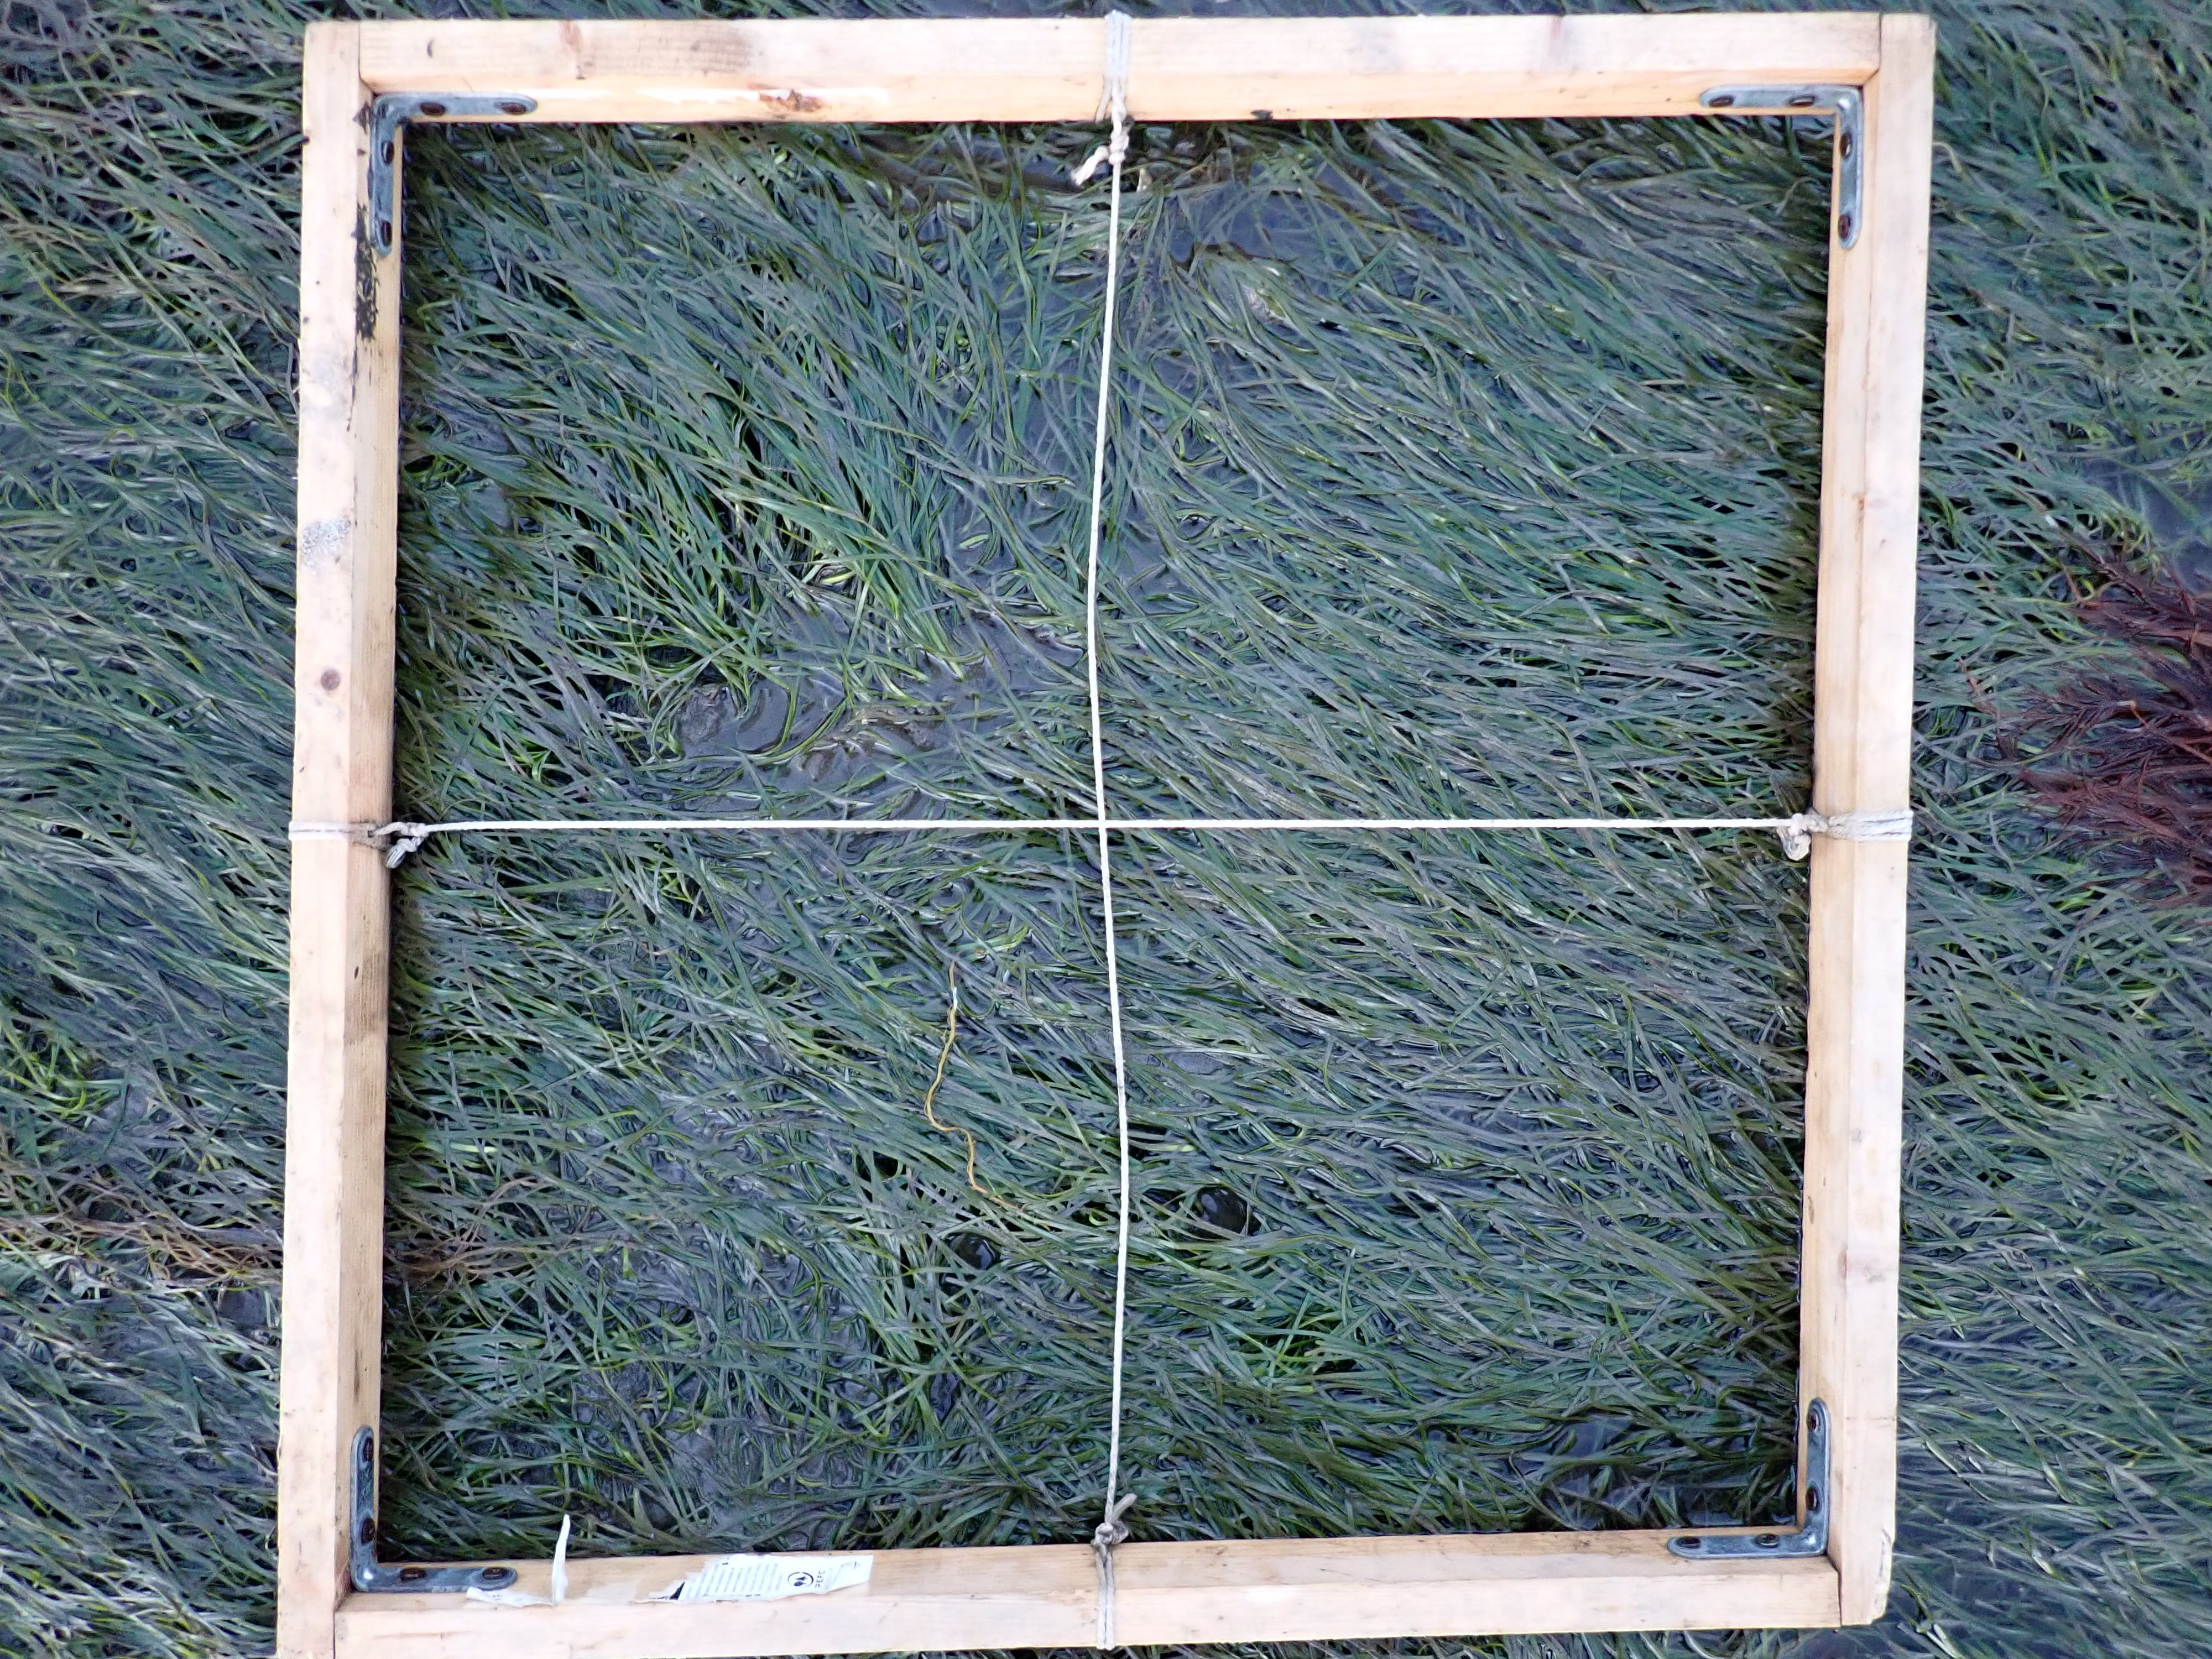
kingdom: Plantae
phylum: Tracheophyta
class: Liliopsida
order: Alismatales
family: Zosteraceae
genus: Zostera
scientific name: Zostera noltii
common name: Dwarf eelgrass
